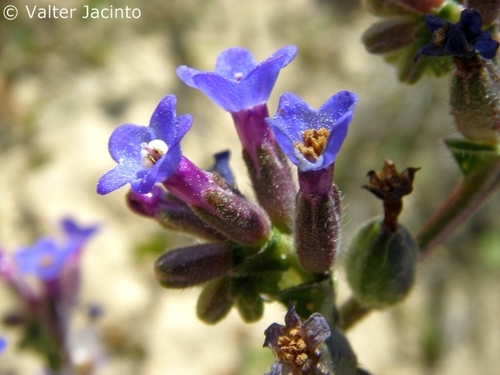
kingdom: Plantae
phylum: Tracheophyta
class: Magnoliopsida
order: Boraginales
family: Boraginaceae
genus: Anchusa
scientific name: Anchusa calcarea
